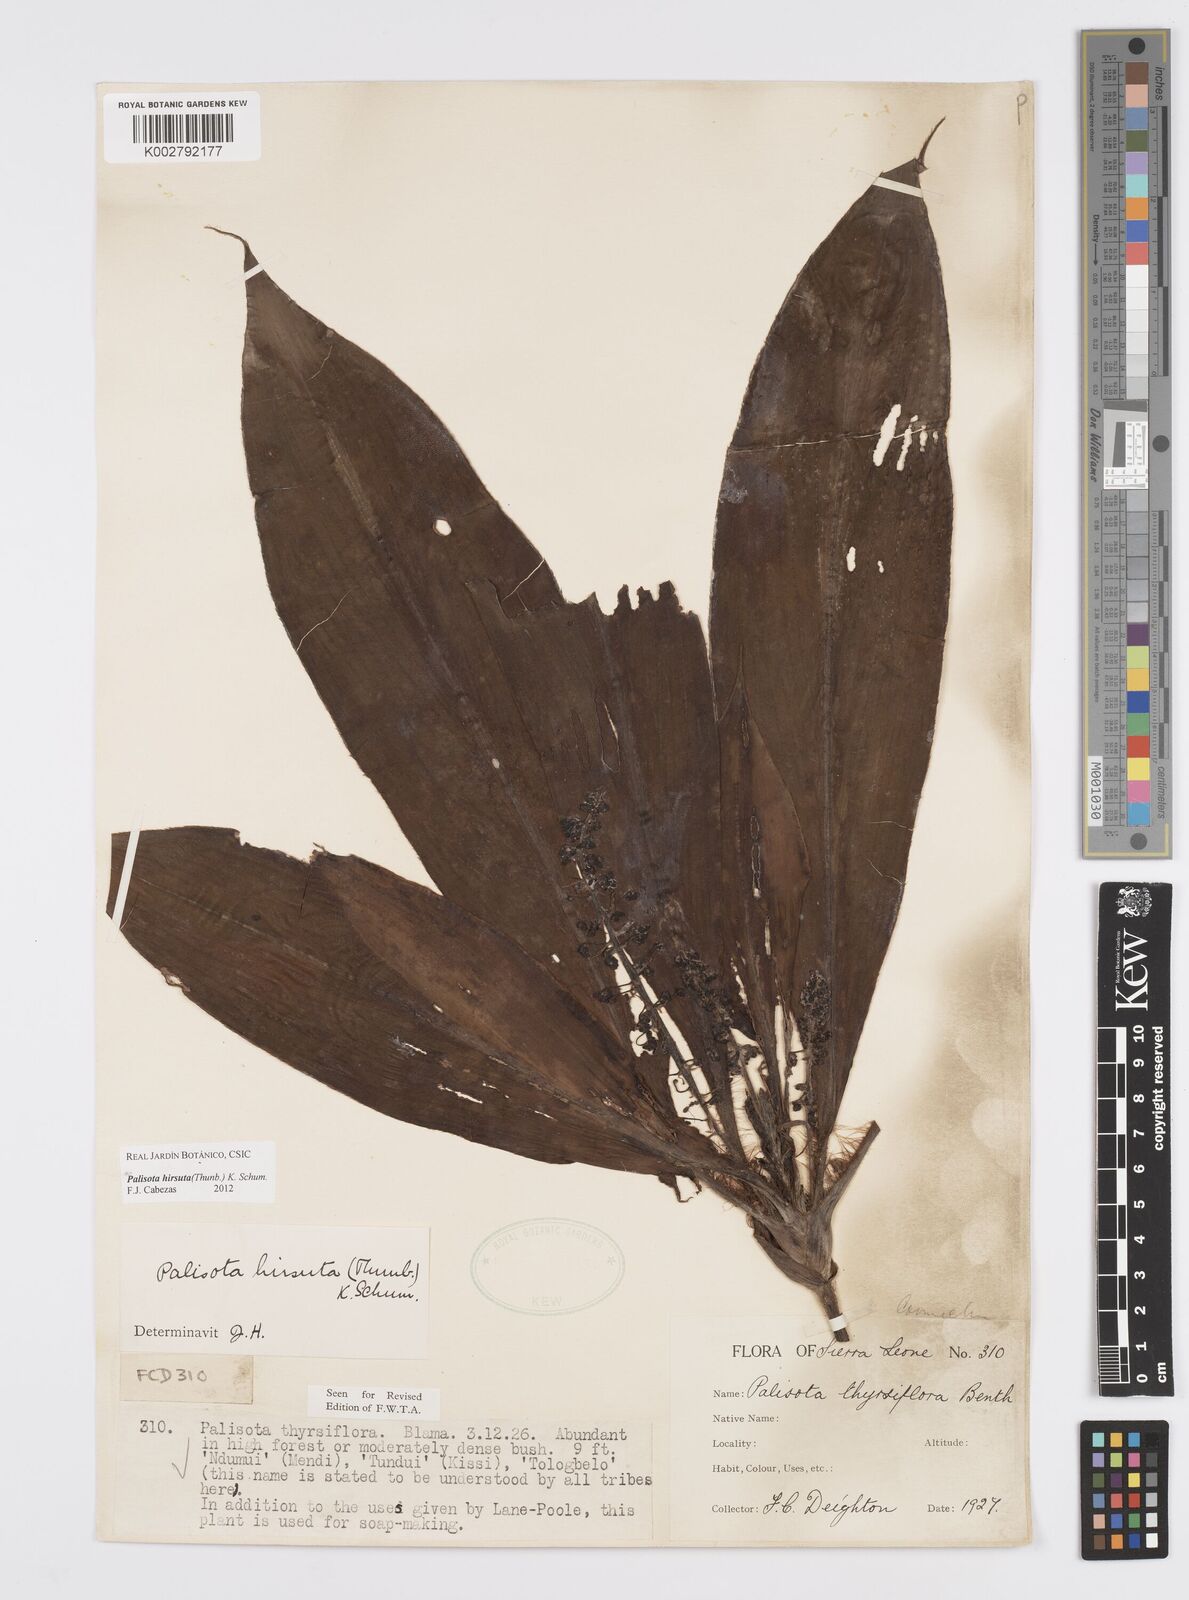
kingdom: Plantae
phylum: Tracheophyta
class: Liliopsida
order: Commelinales
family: Commelinaceae
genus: Palisota
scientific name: Palisota hirsuta
